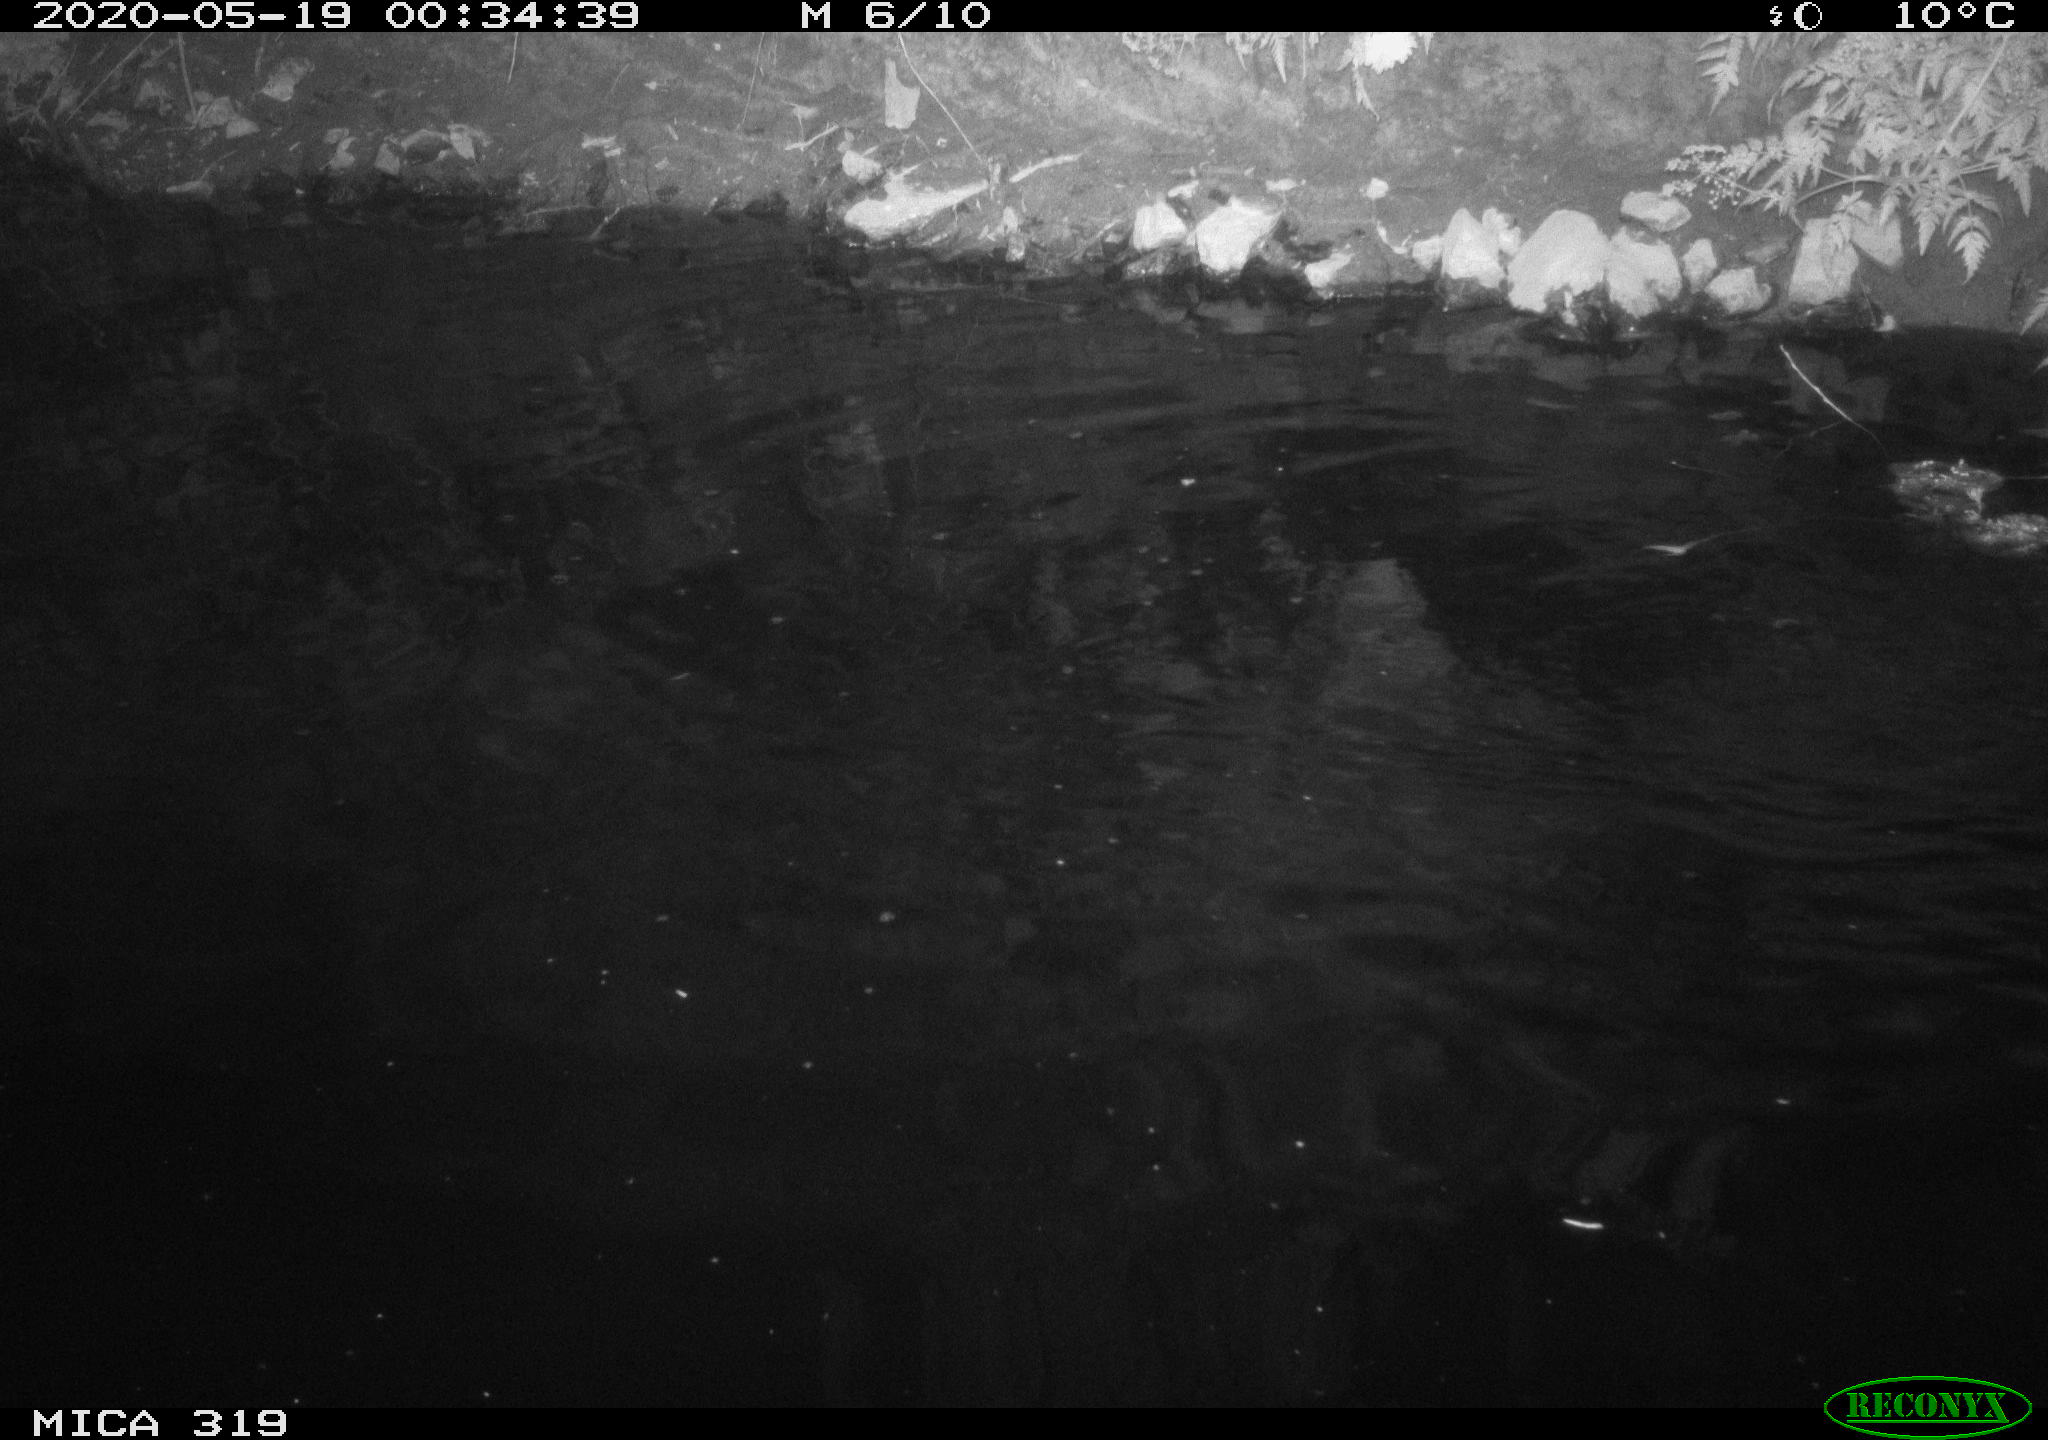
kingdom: Animalia
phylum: Chordata
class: Aves
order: Anseriformes
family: Anatidae
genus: Anas
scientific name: Anas platyrhynchos
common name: Mallard
